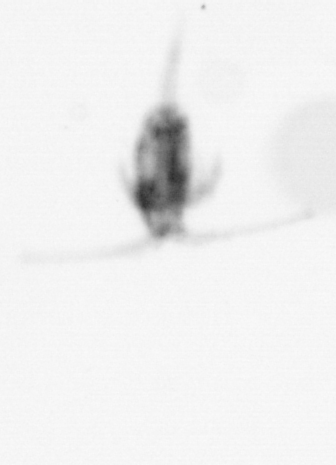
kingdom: Animalia
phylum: Arthropoda
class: Copepoda
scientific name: Copepoda
